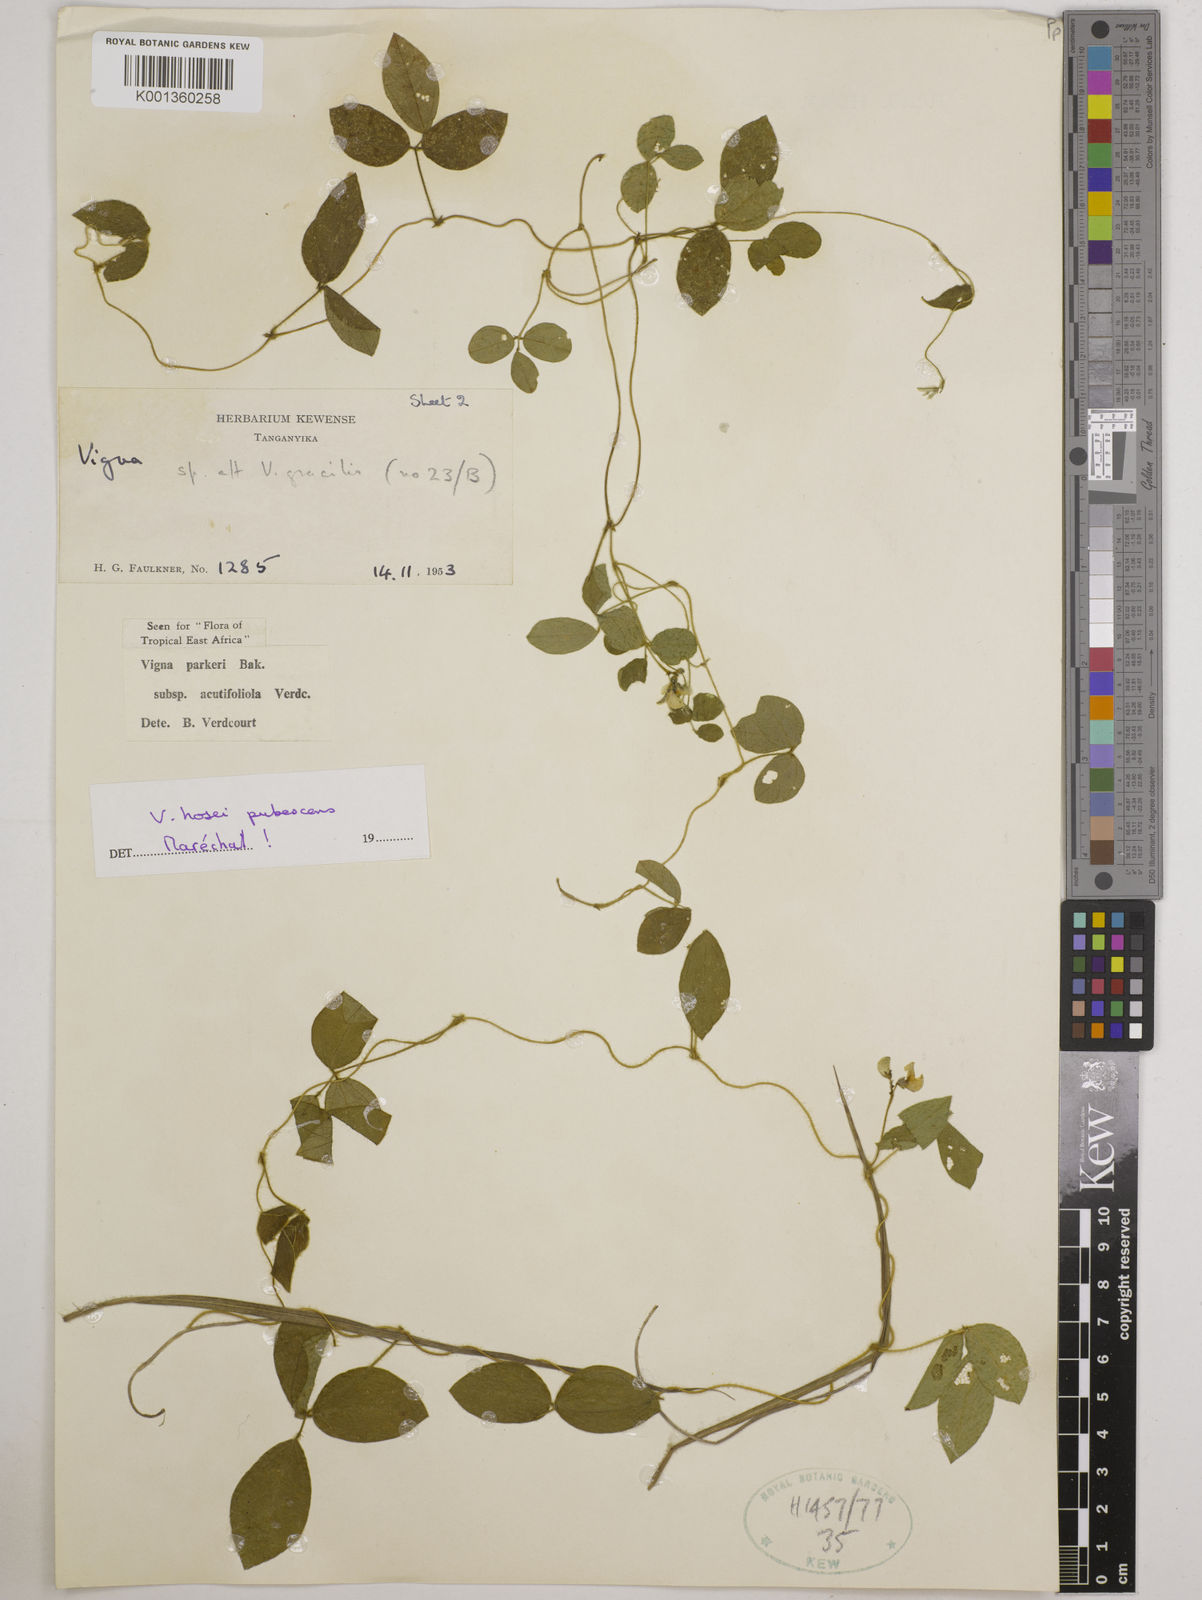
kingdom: Plantae
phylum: Tracheophyta
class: Magnoliopsida
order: Fabales
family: Fabaceae
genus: Vigna
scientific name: Vigna
